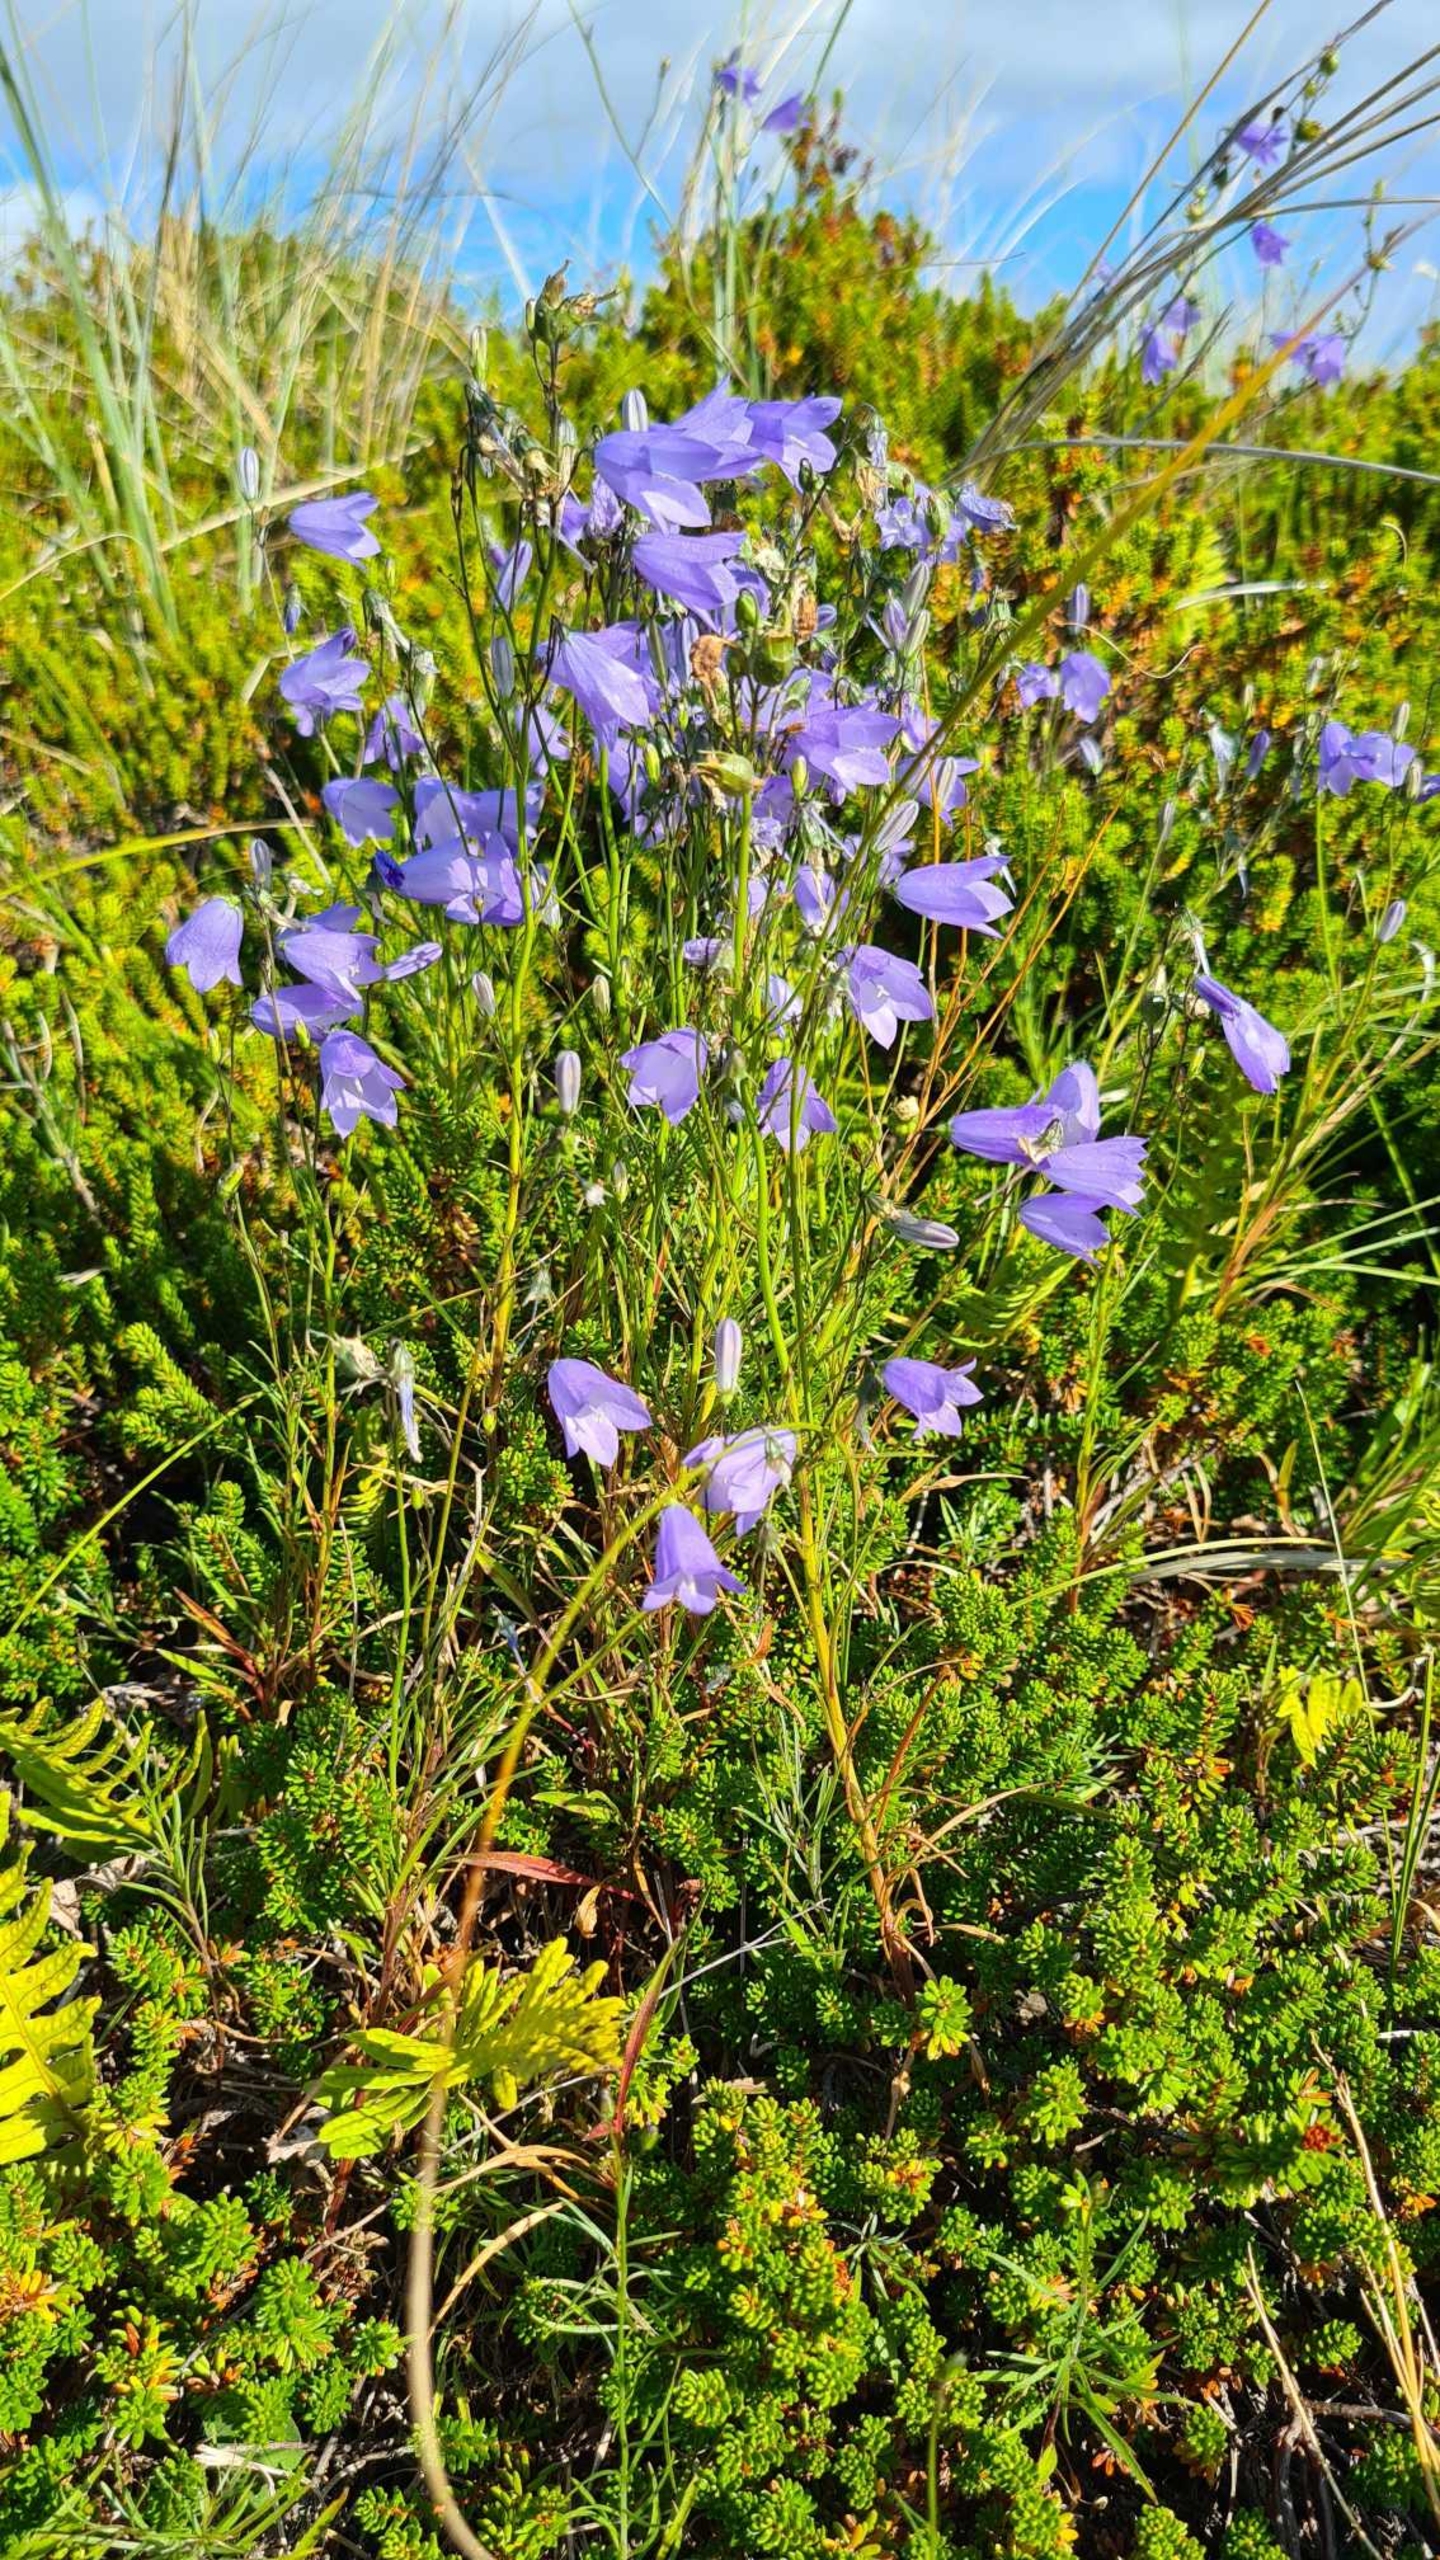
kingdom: Plantae
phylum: Tracheophyta
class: Magnoliopsida
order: Asterales
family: Campanulaceae
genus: Campanula
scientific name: Campanula rotundifolia
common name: Liden klokke
